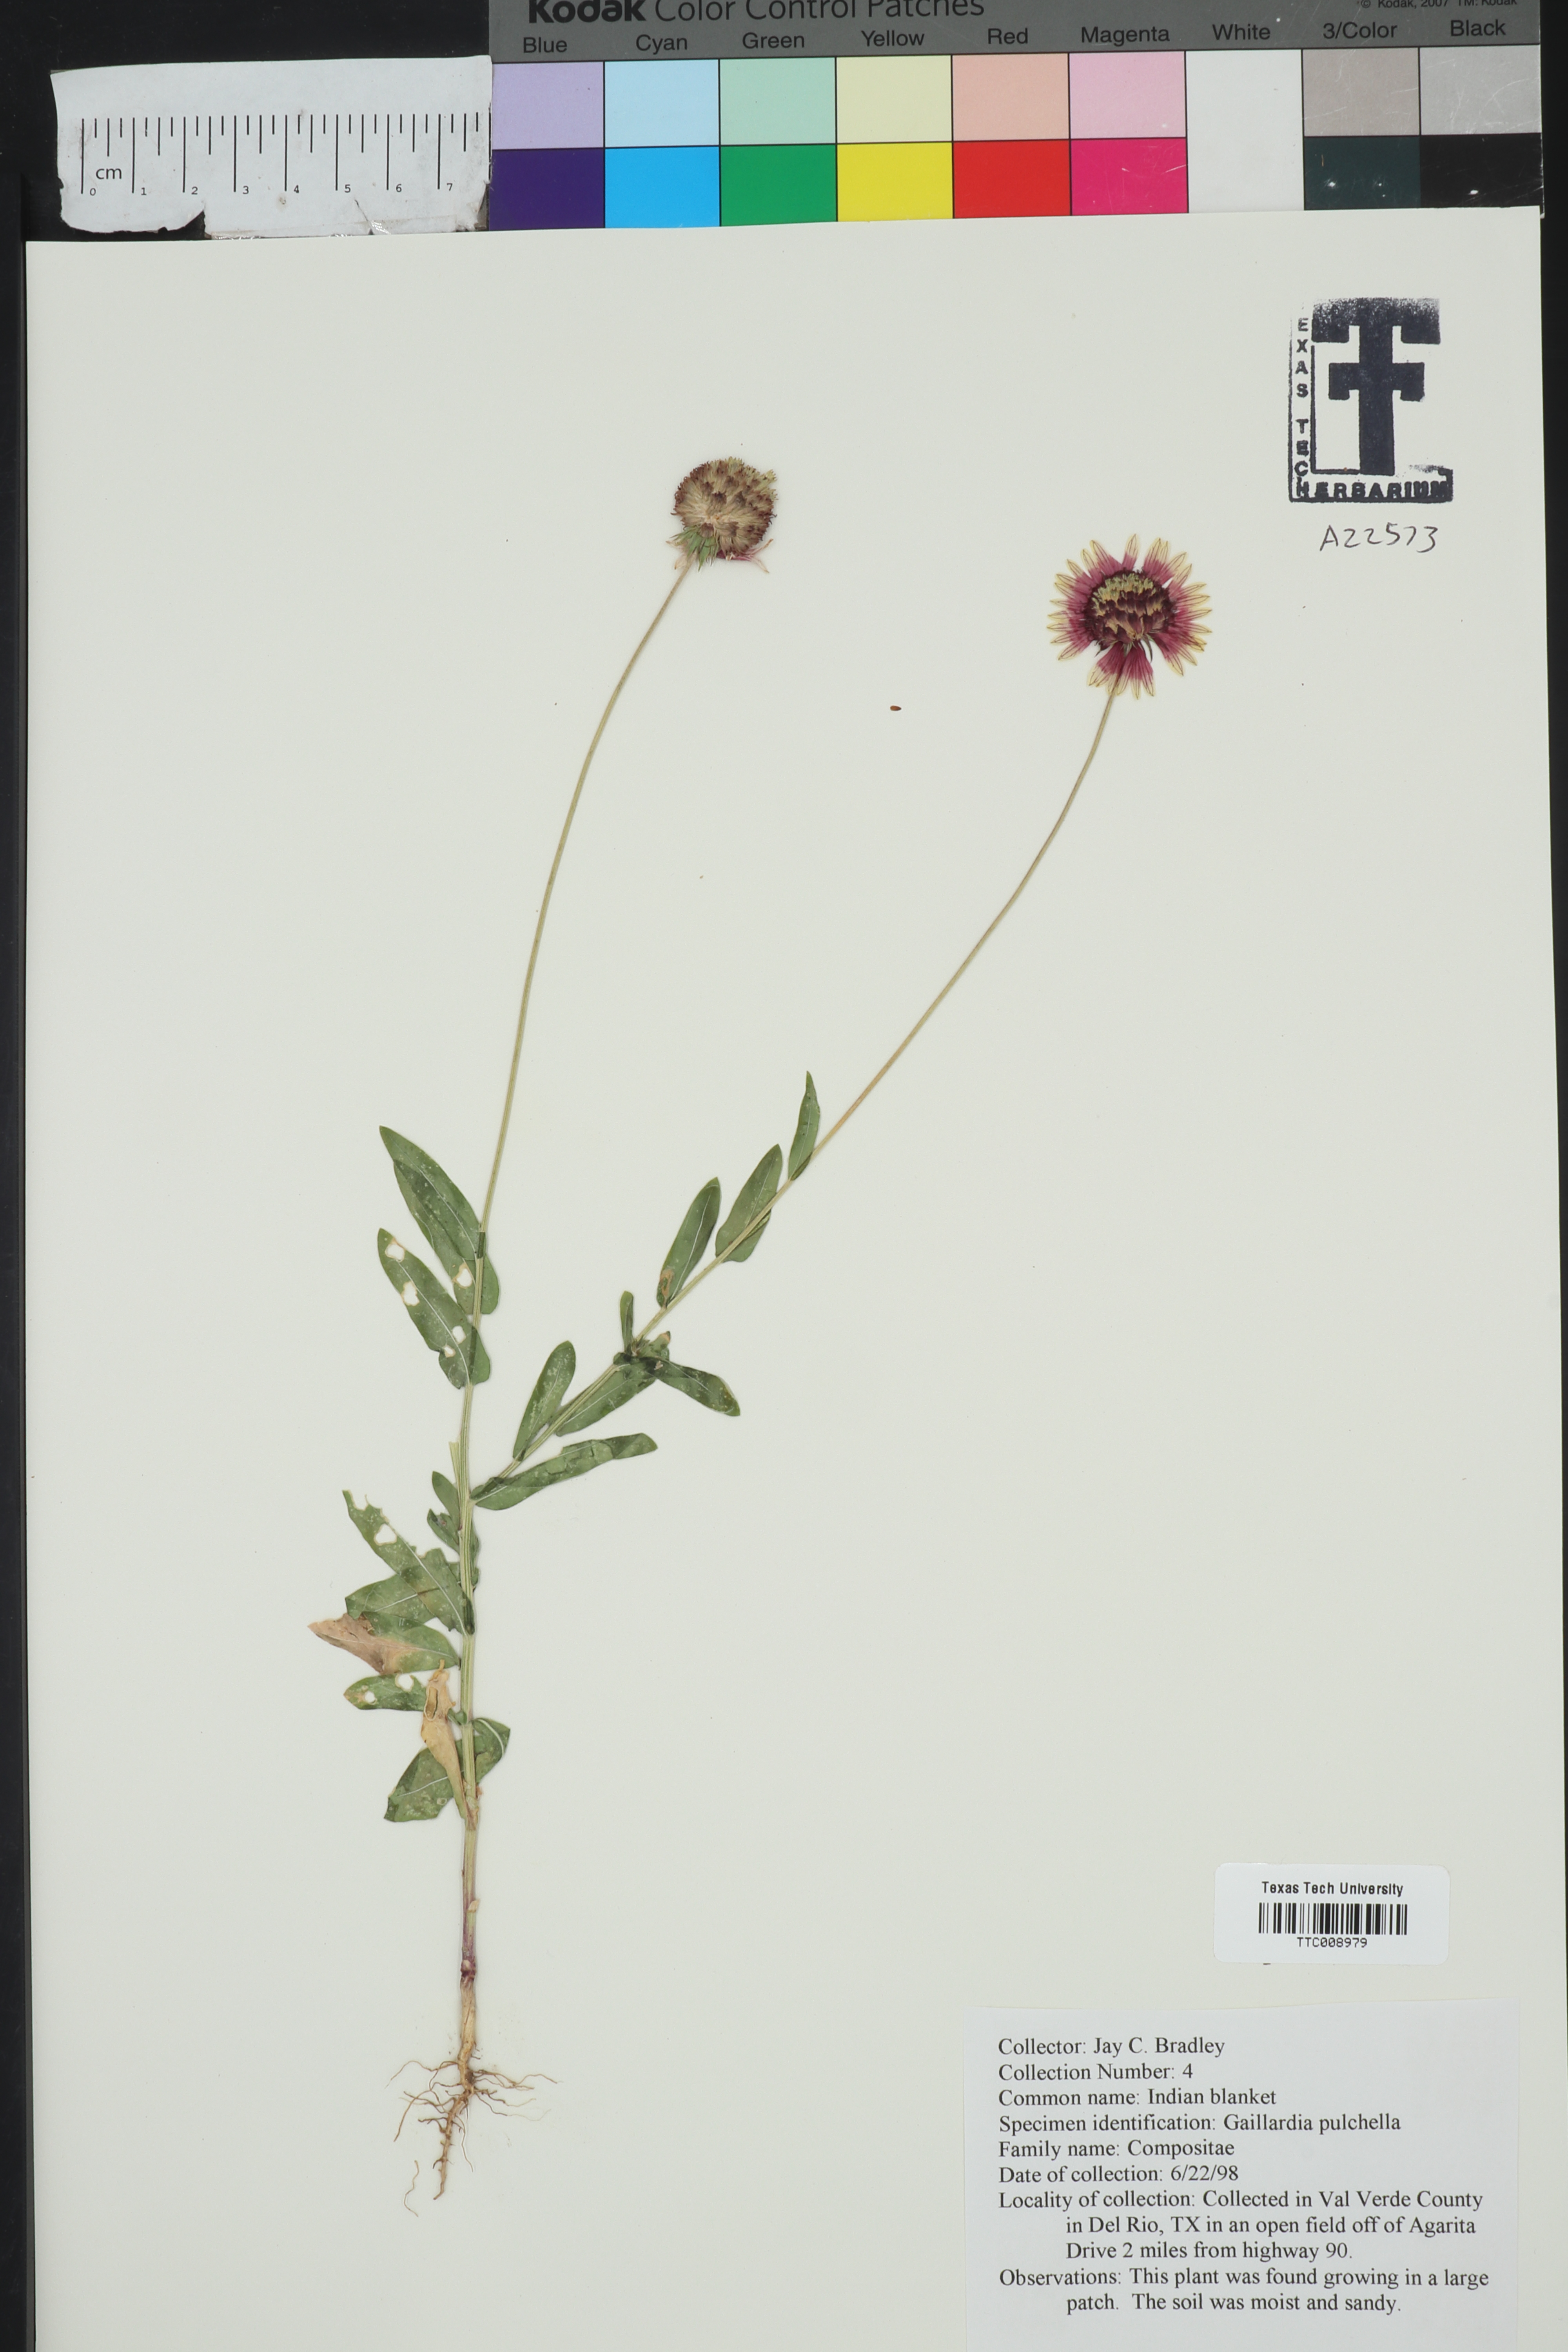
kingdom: Plantae
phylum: Tracheophyta
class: Magnoliopsida
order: Asterales
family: Asteraceae
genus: Gaillardia
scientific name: Gaillardia pulchella
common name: Firewheel
